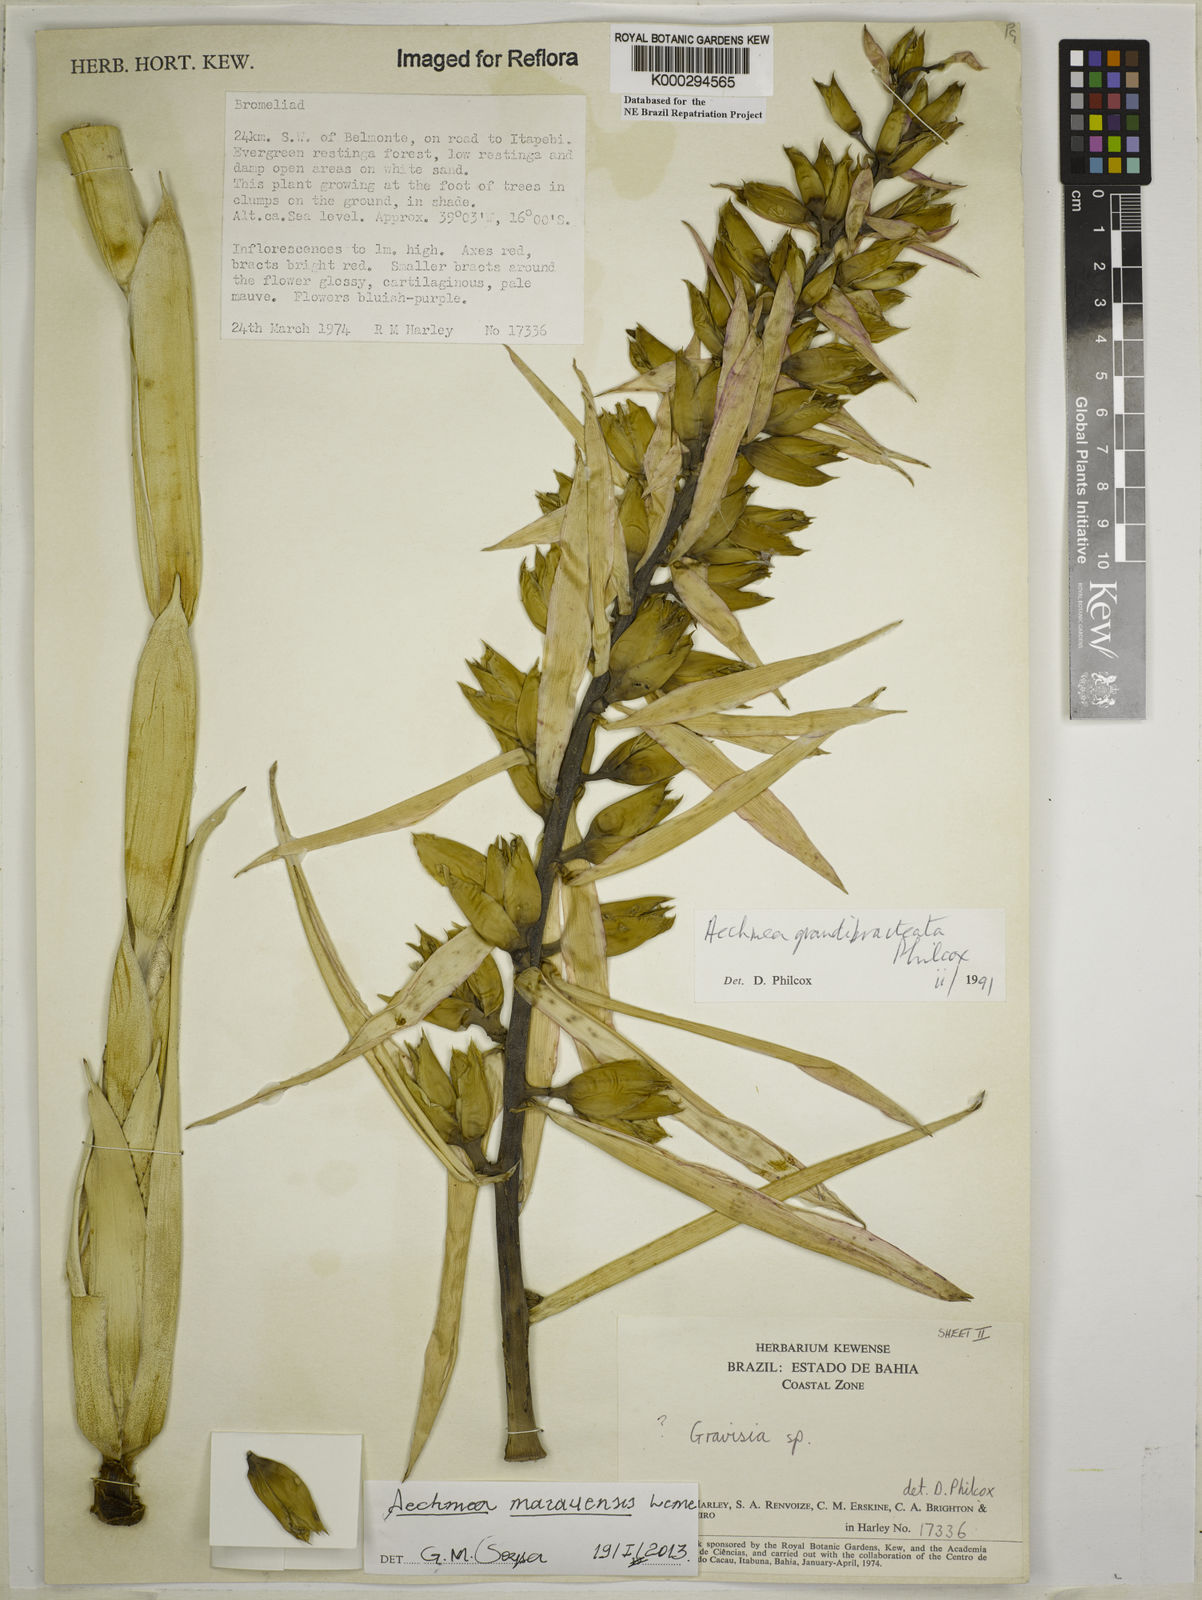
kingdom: Plantae
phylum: Tracheophyta
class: Liliopsida
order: Poales
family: Bromeliaceae
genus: Aechmea
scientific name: Aechmea marauensis
